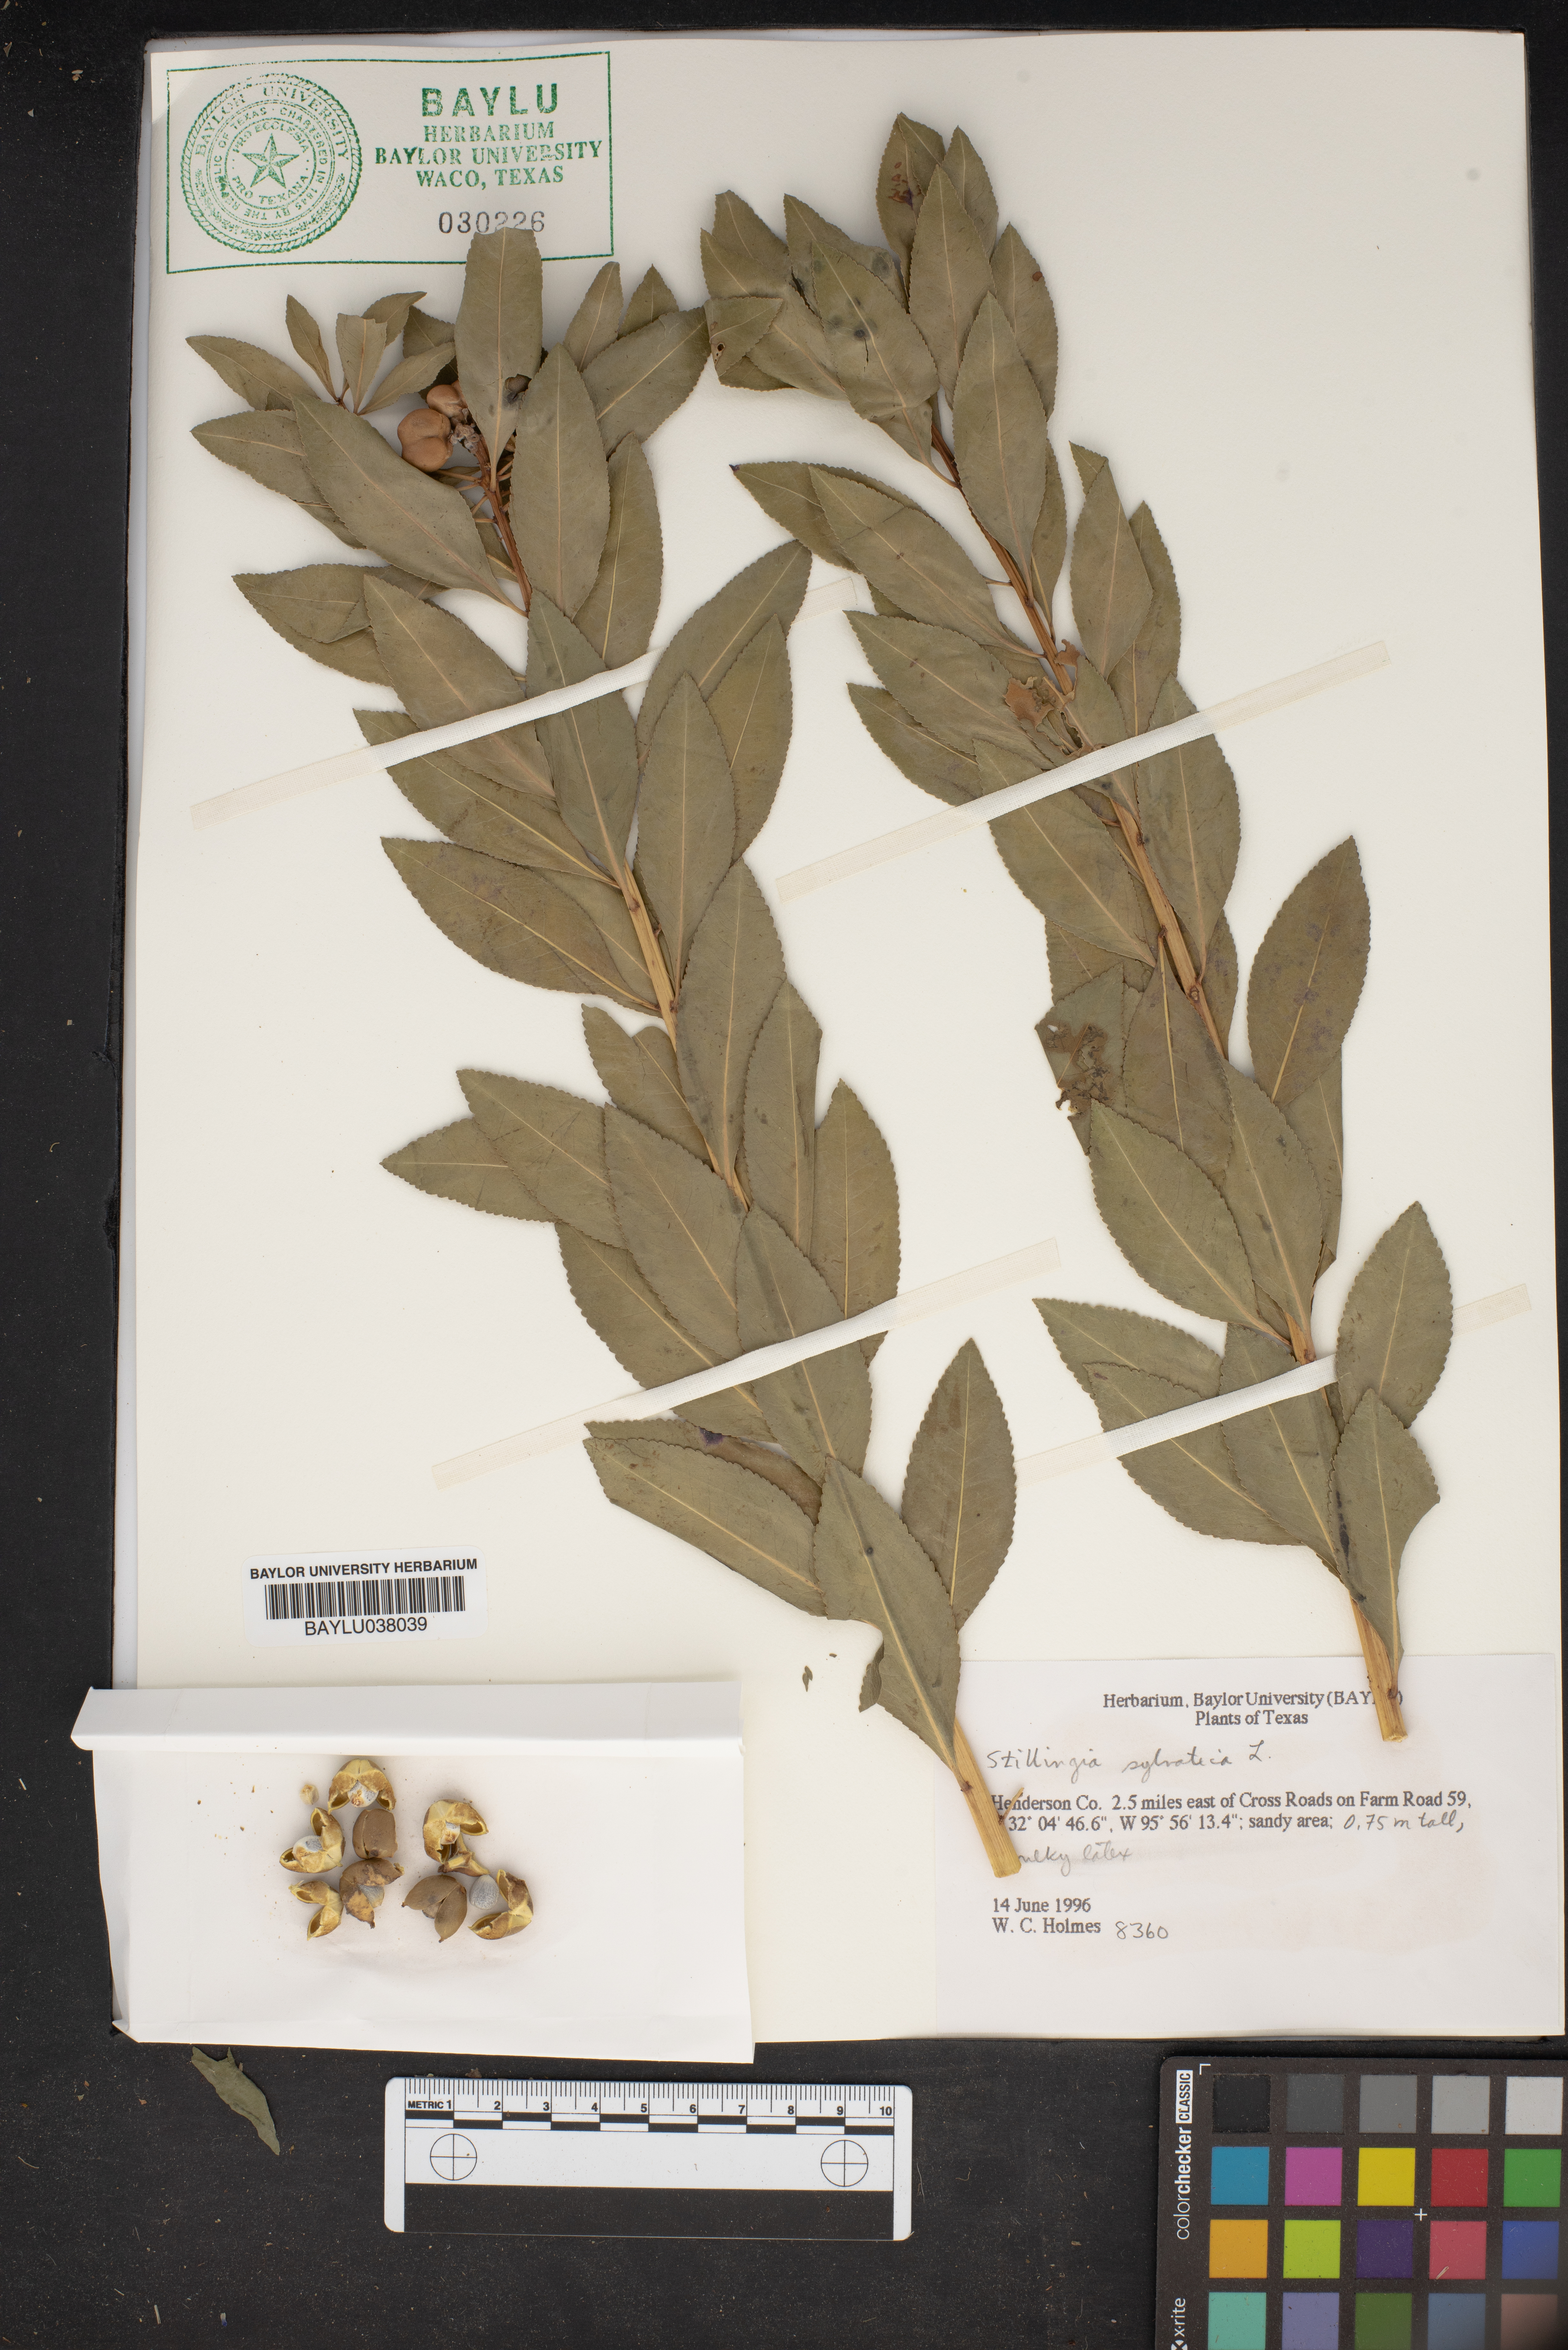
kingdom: Plantae
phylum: Tracheophyta
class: Magnoliopsida
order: Malpighiales
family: Euphorbiaceae
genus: Stillingia
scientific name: Stillingia sylvatica
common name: Queen's-delight
